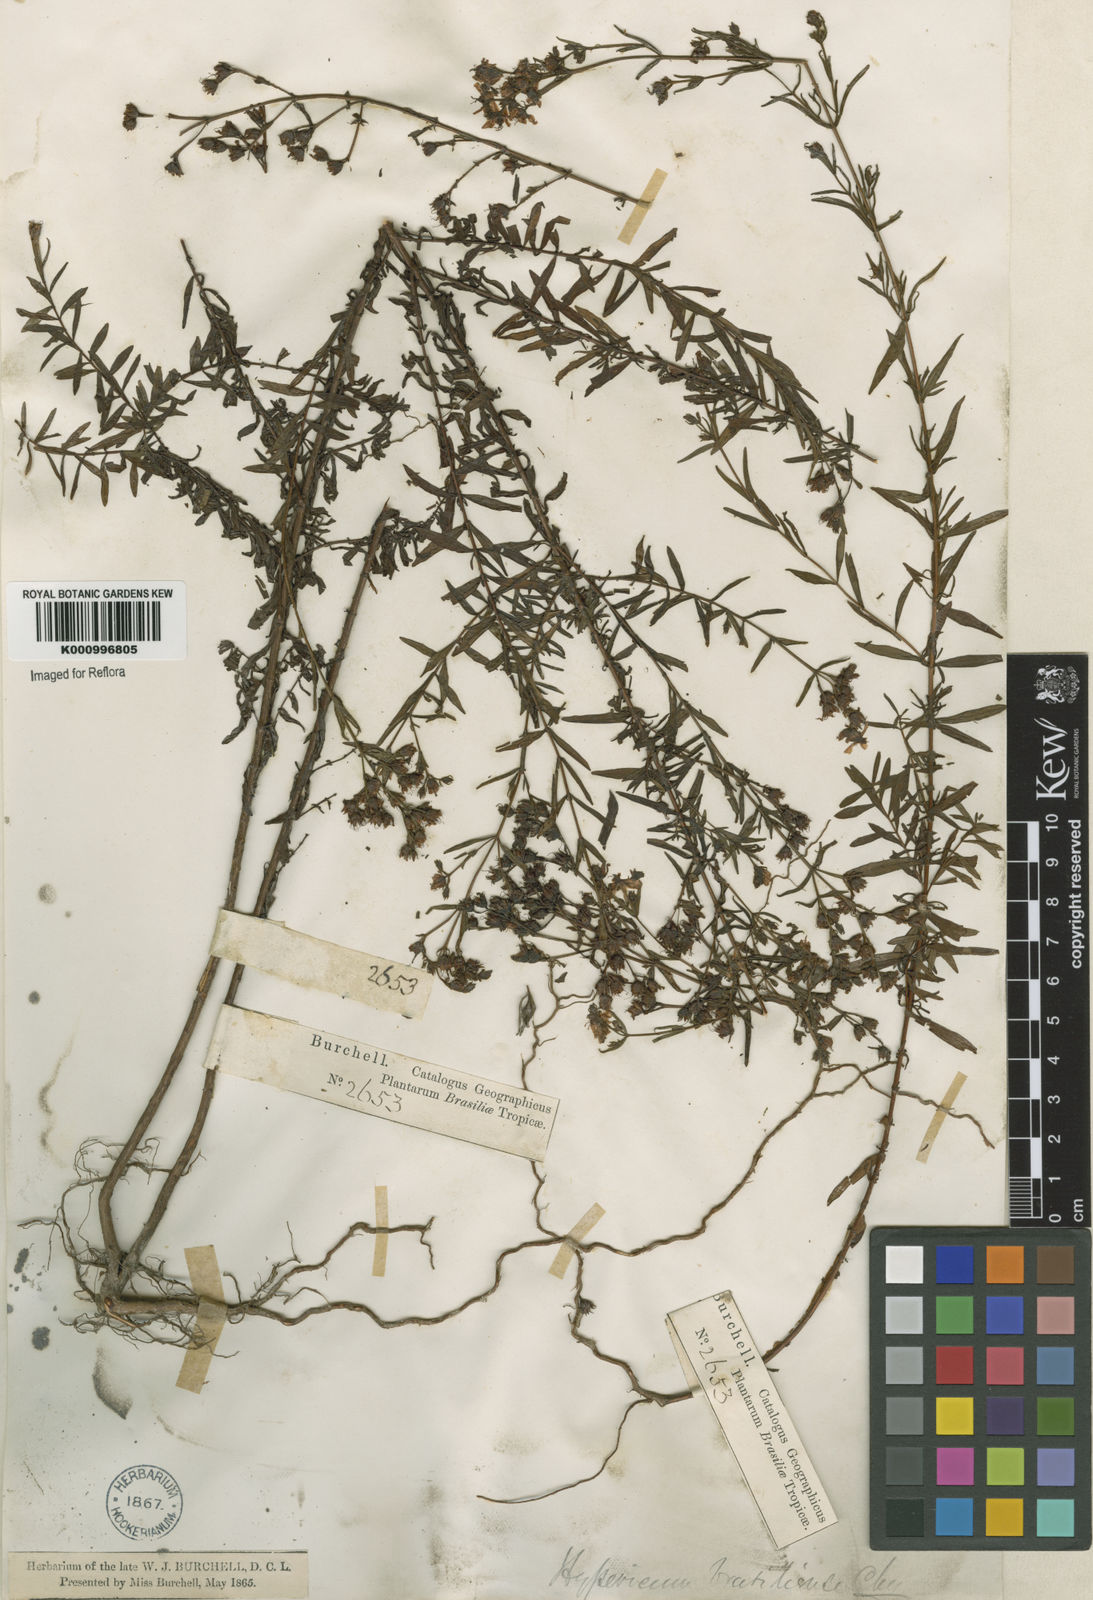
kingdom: Plantae
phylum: Tracheophyta
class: Magnoliopsida
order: Malpighiales
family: Hypericaceae
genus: Hypericum
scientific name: Hypericum brasiliense
